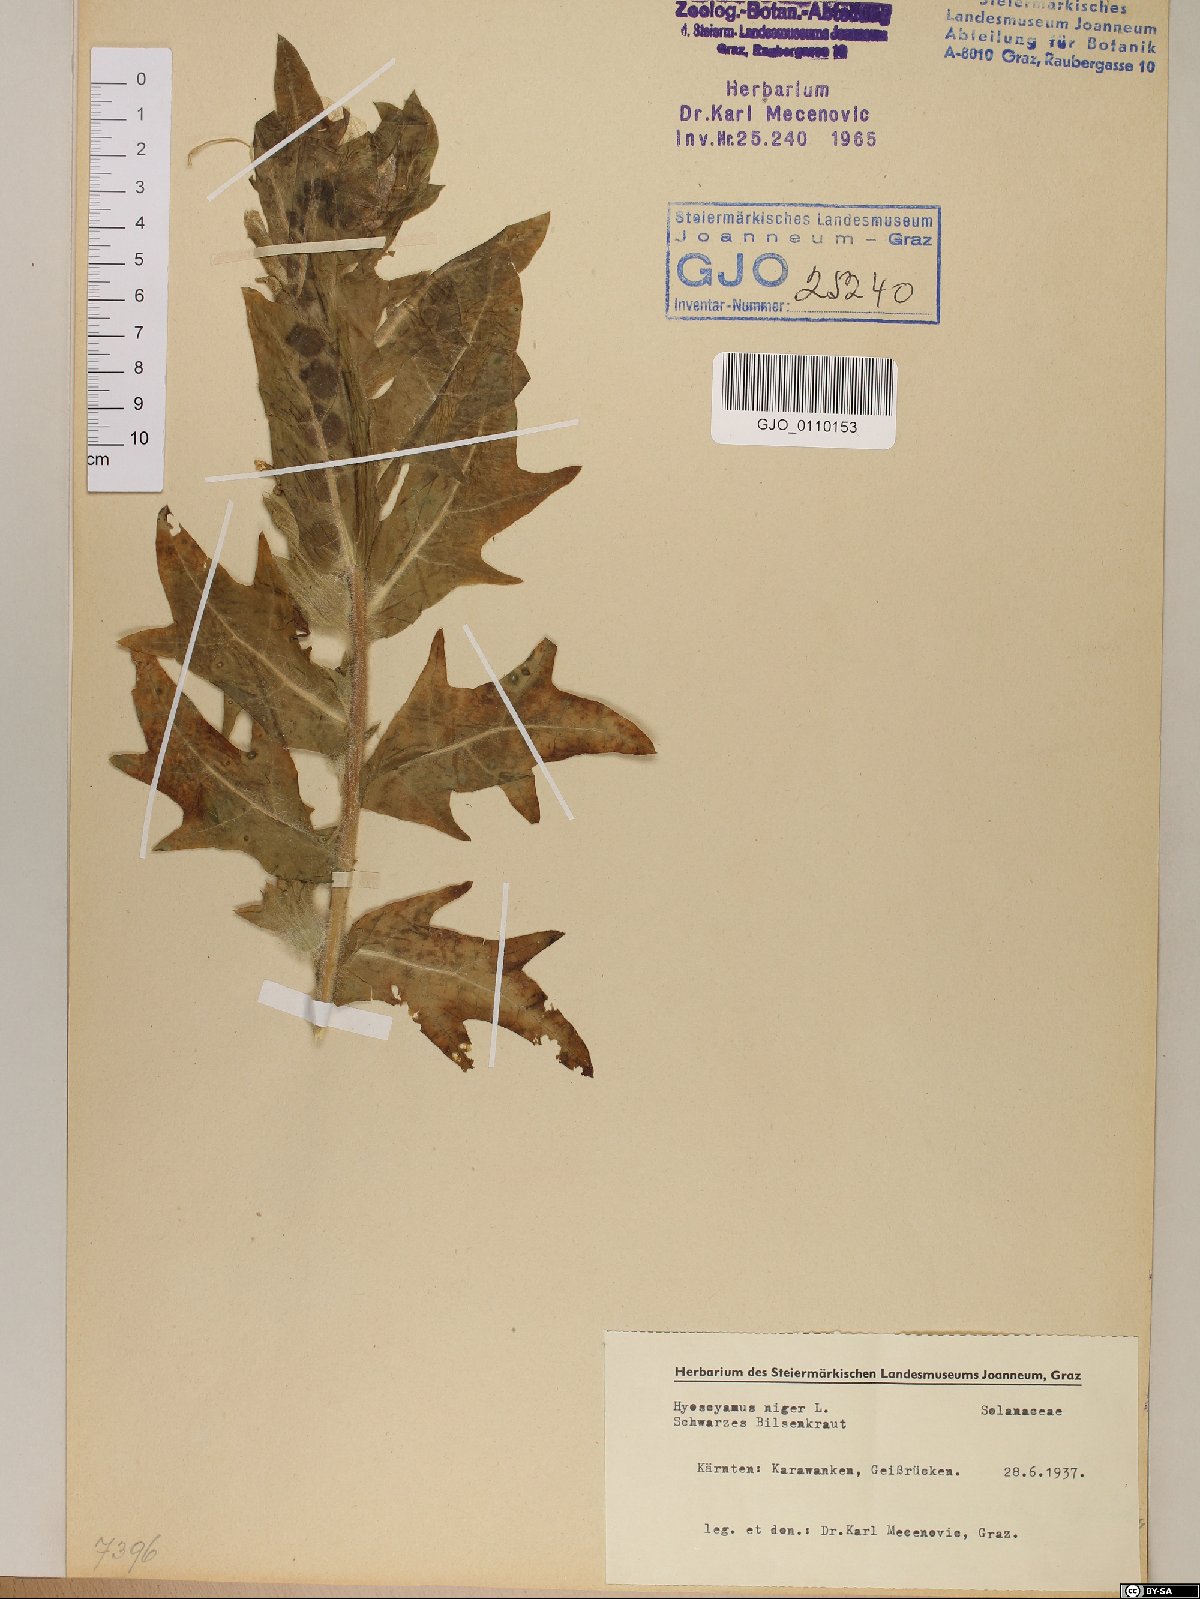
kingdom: Plantae
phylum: Tracheophyta
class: Magnoliopsida
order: Solanales
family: Solanaceae
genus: Hyoscyamus
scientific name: Hyoscyamus niger
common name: Henbane
